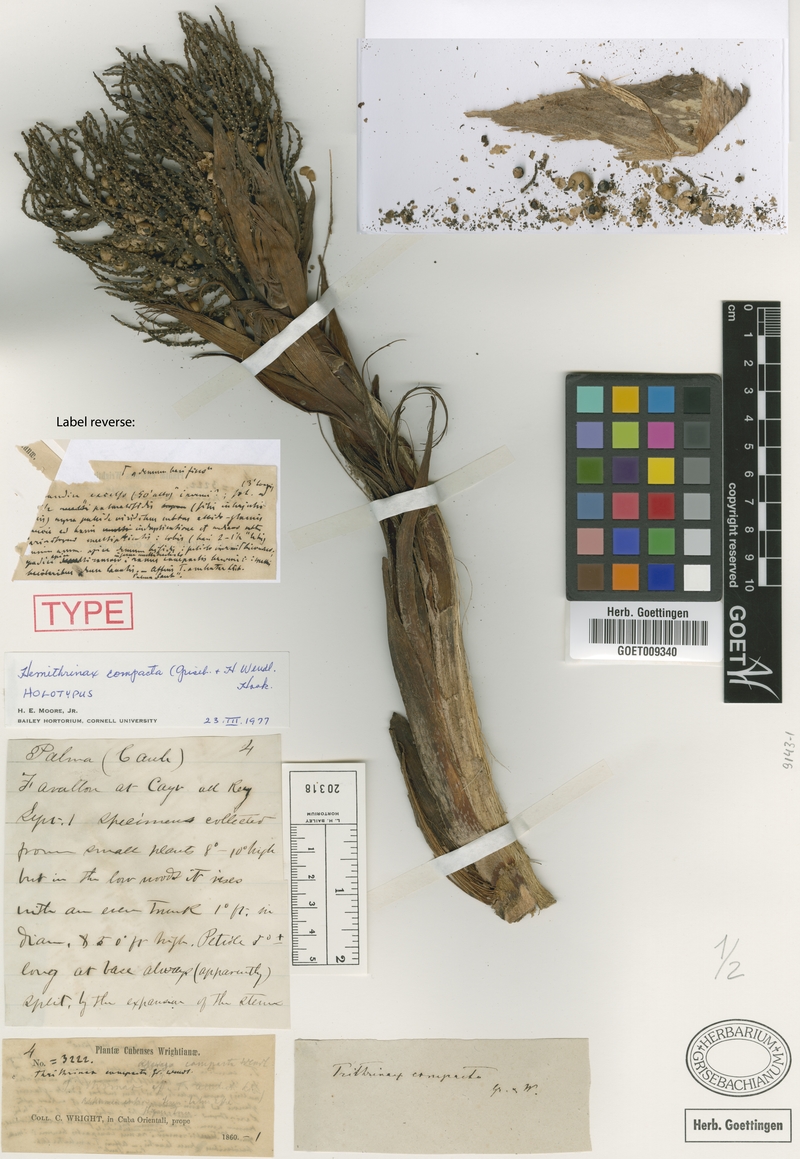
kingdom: Plantae
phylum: Tracheophyta
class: Liliopsida
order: Arecales
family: Arecaceae
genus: Hemithrinax
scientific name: Hemithrinax compacta
